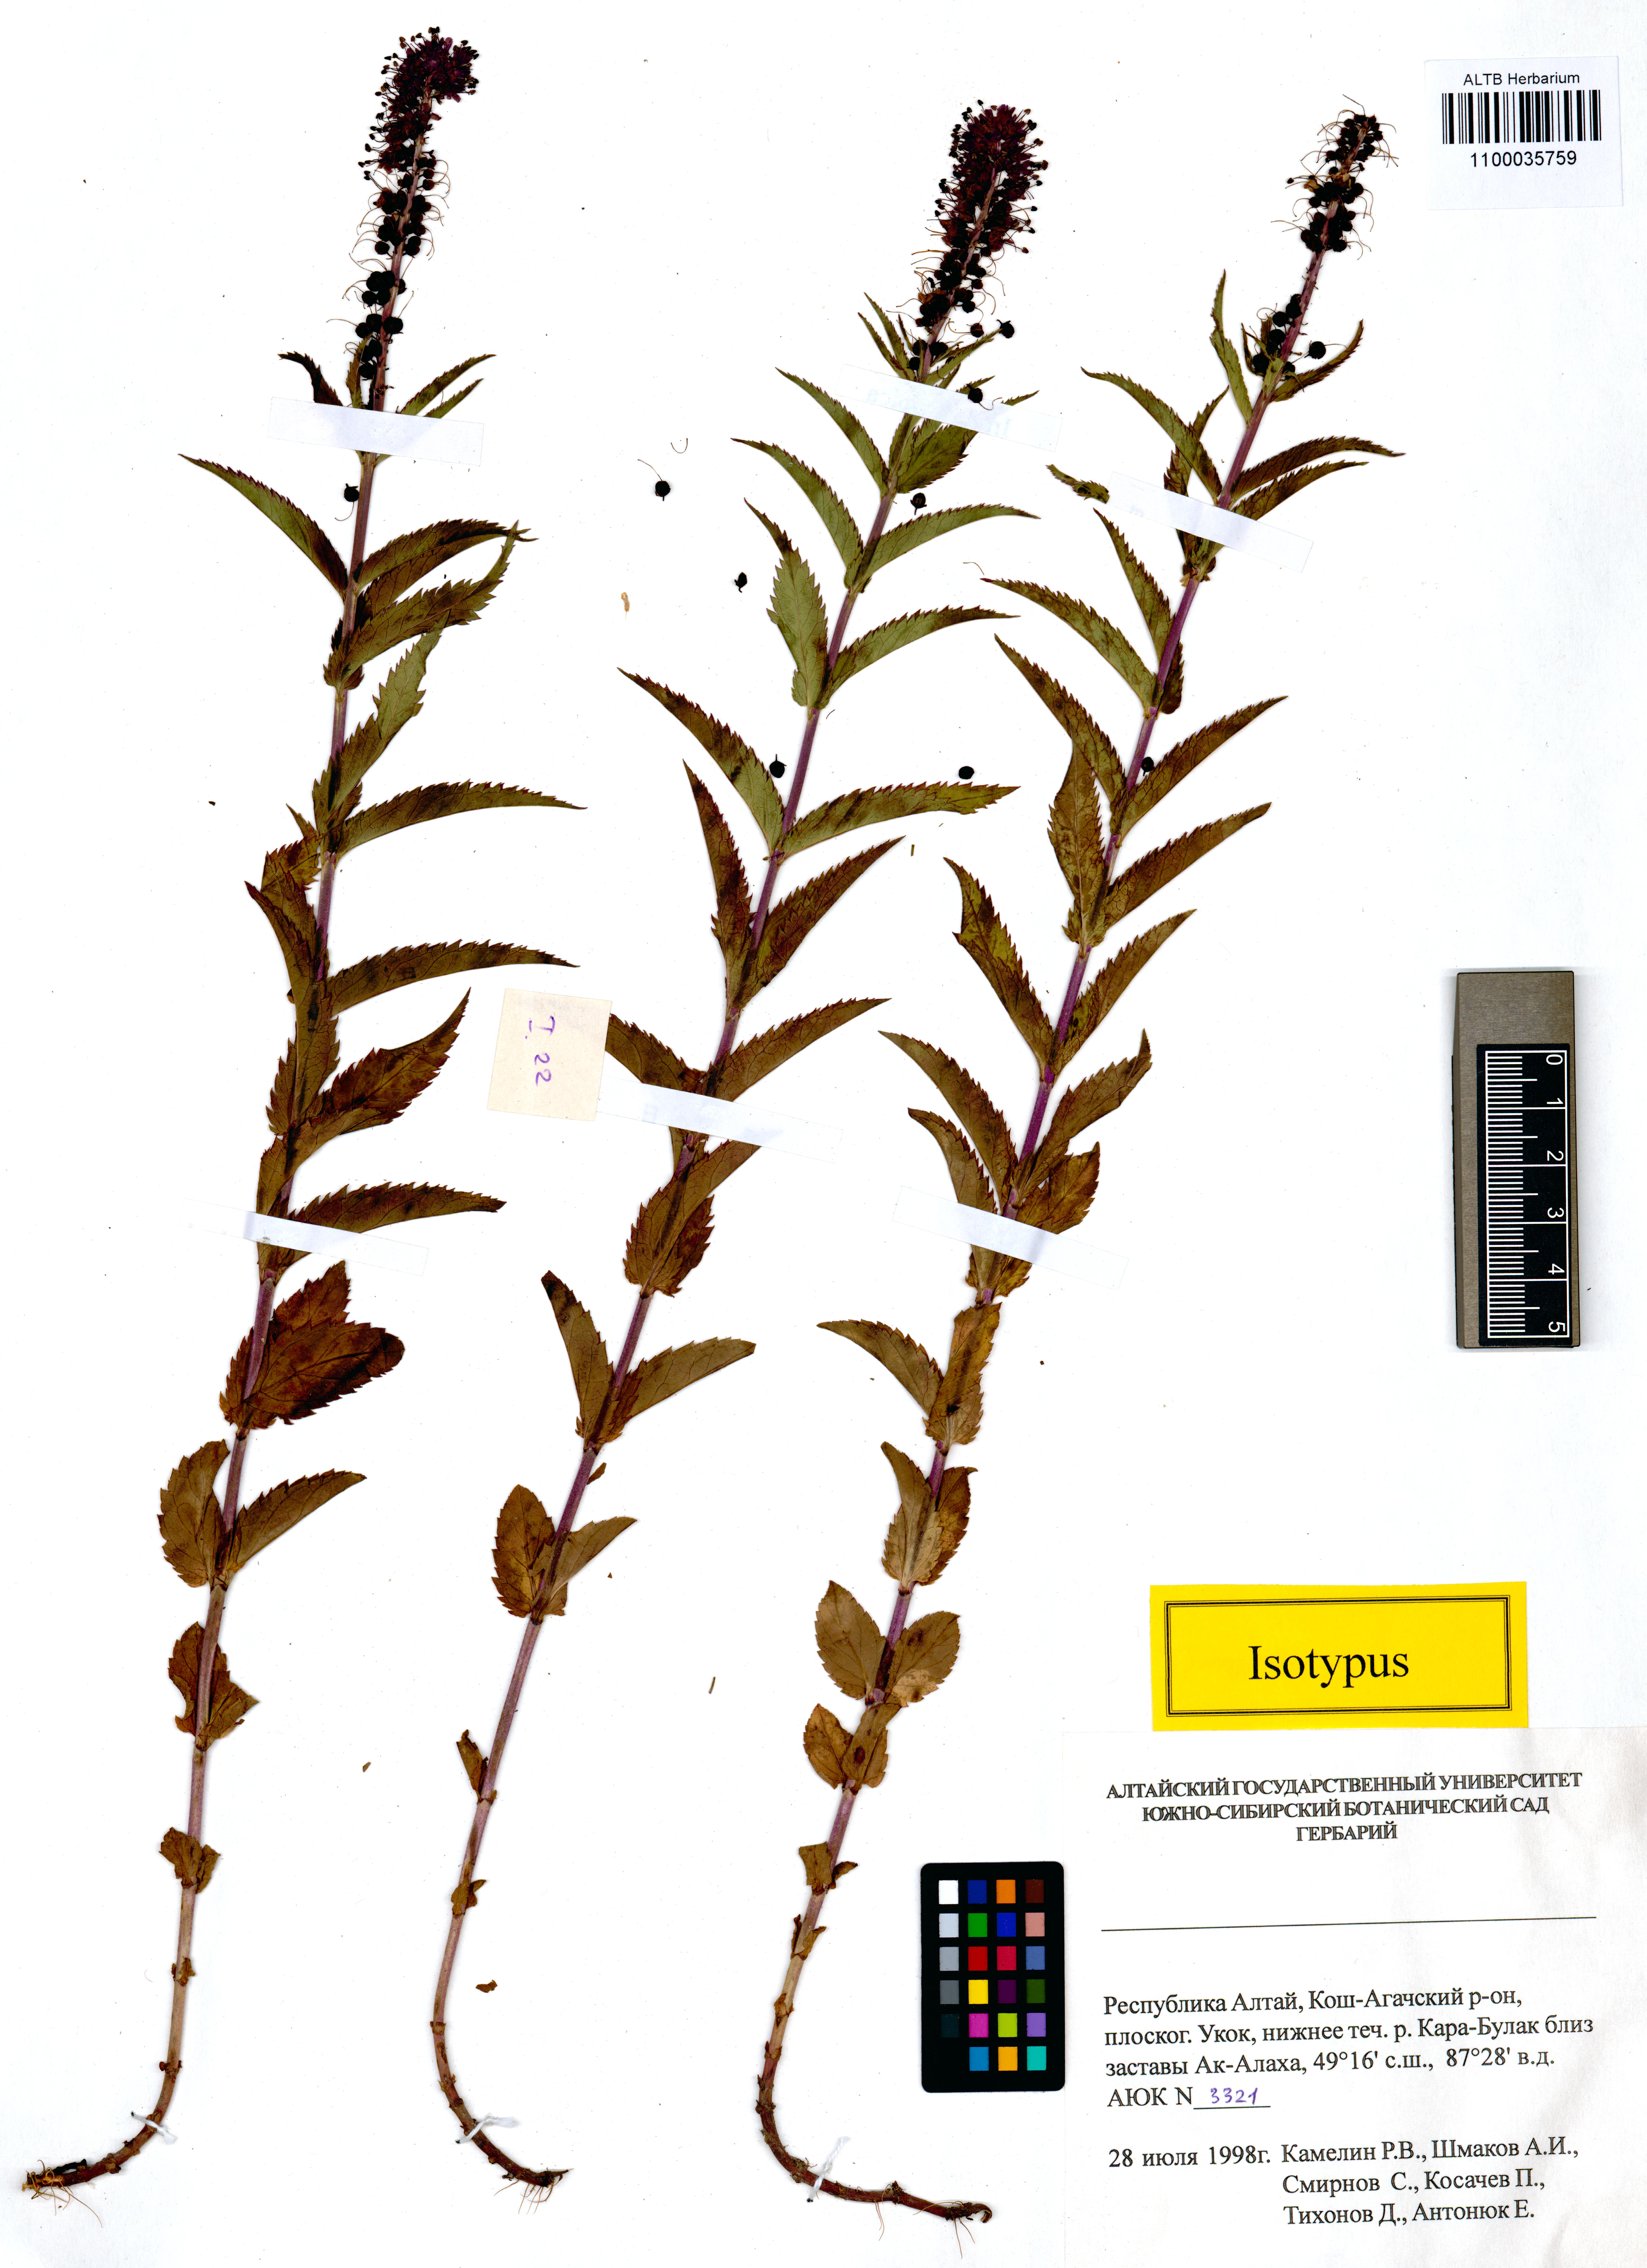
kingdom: Plantae
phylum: Tracheophyta
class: Magnoliopsida
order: Lamiales
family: Plantaginaceae
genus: Veronica
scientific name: Veronica schmakovii
